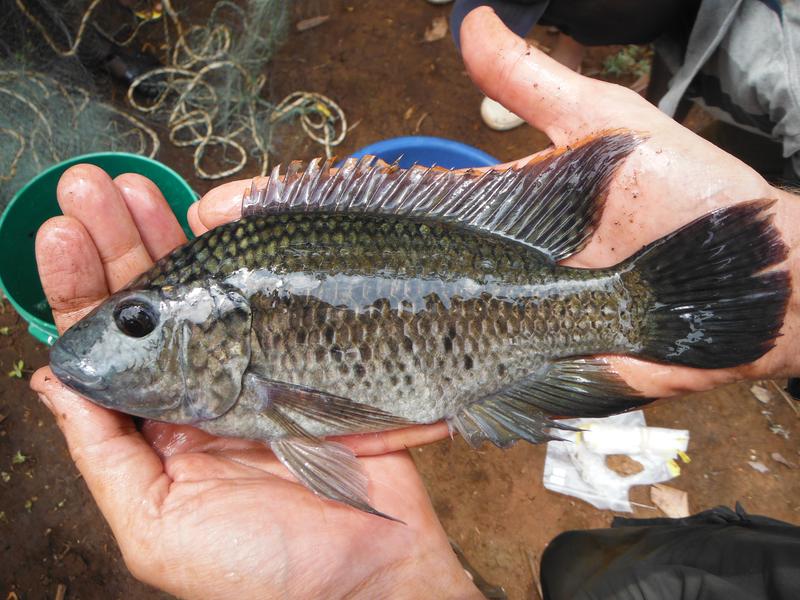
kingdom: Animalia
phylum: Chordata
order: Perciformes
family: Cichlidae
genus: Oreochromis
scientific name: Oreochromis shiranus
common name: Chilwa tilapia
